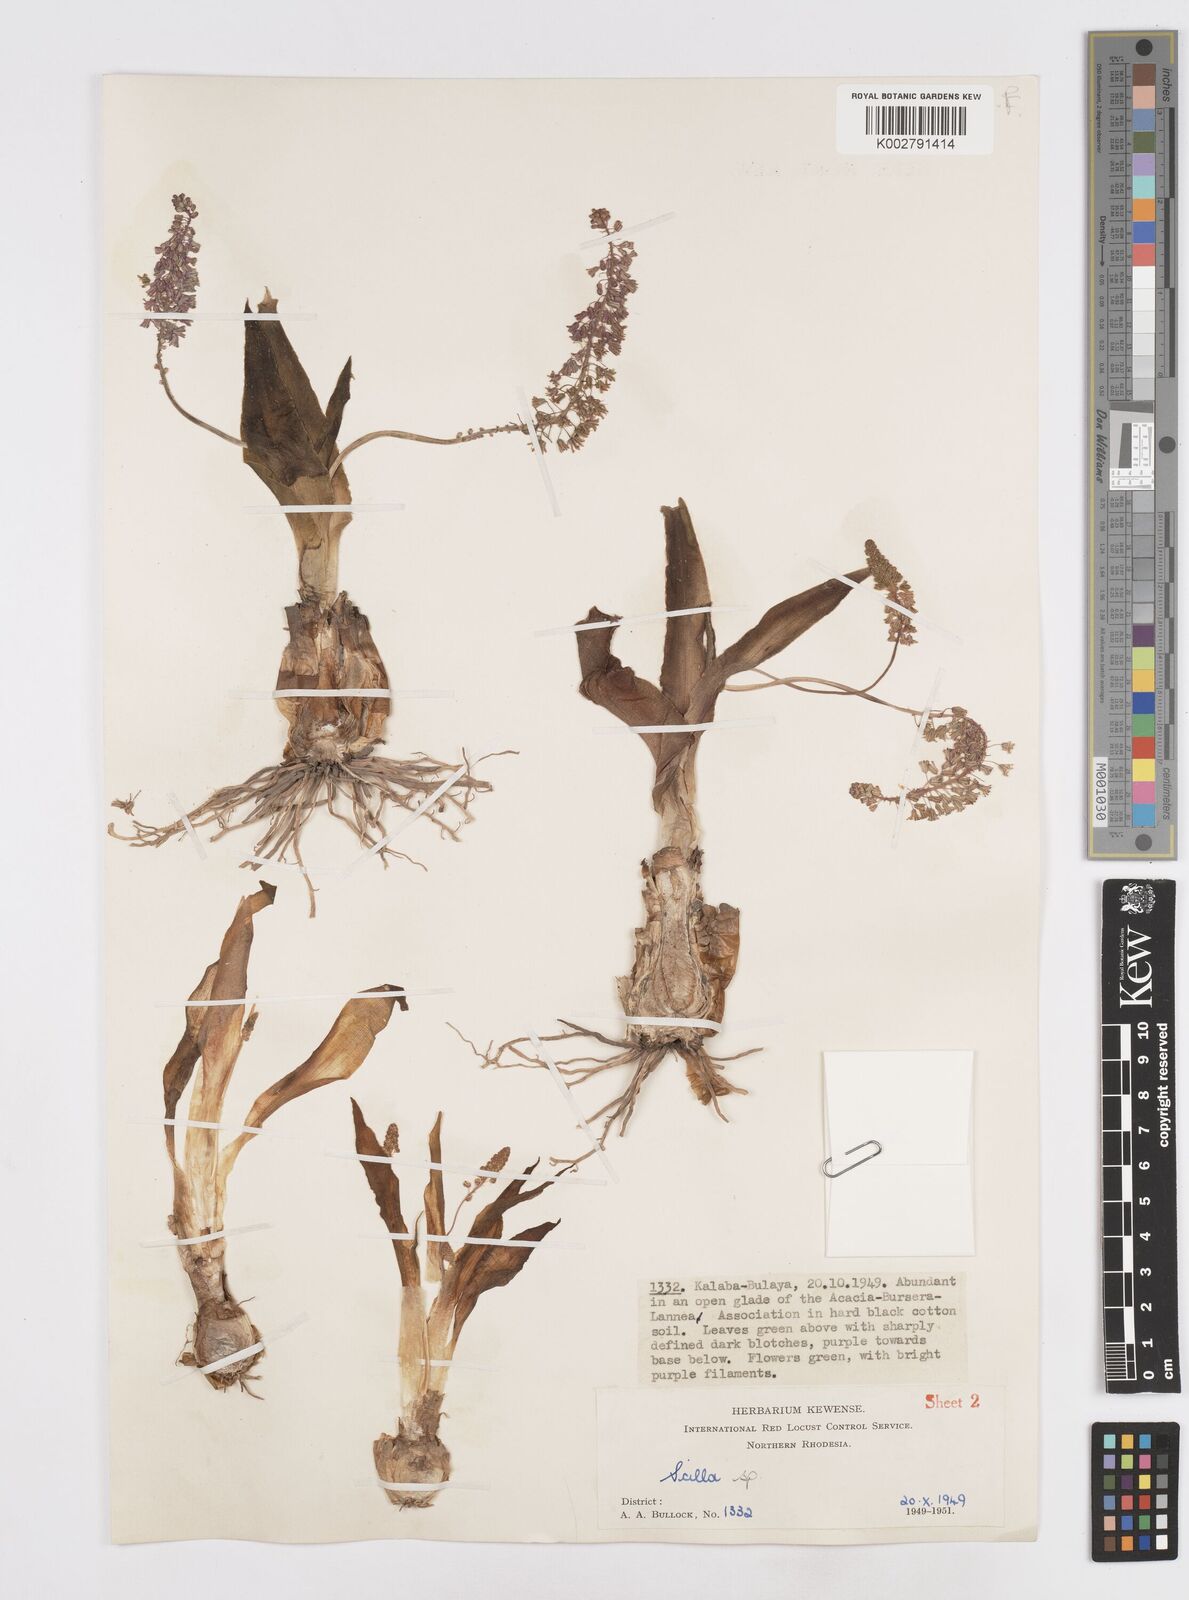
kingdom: Plantae
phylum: Tracheophyta
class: Liliopsida
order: Asparagales
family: Asparagaceae
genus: Ledebouria
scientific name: Ledebouria revoluta
